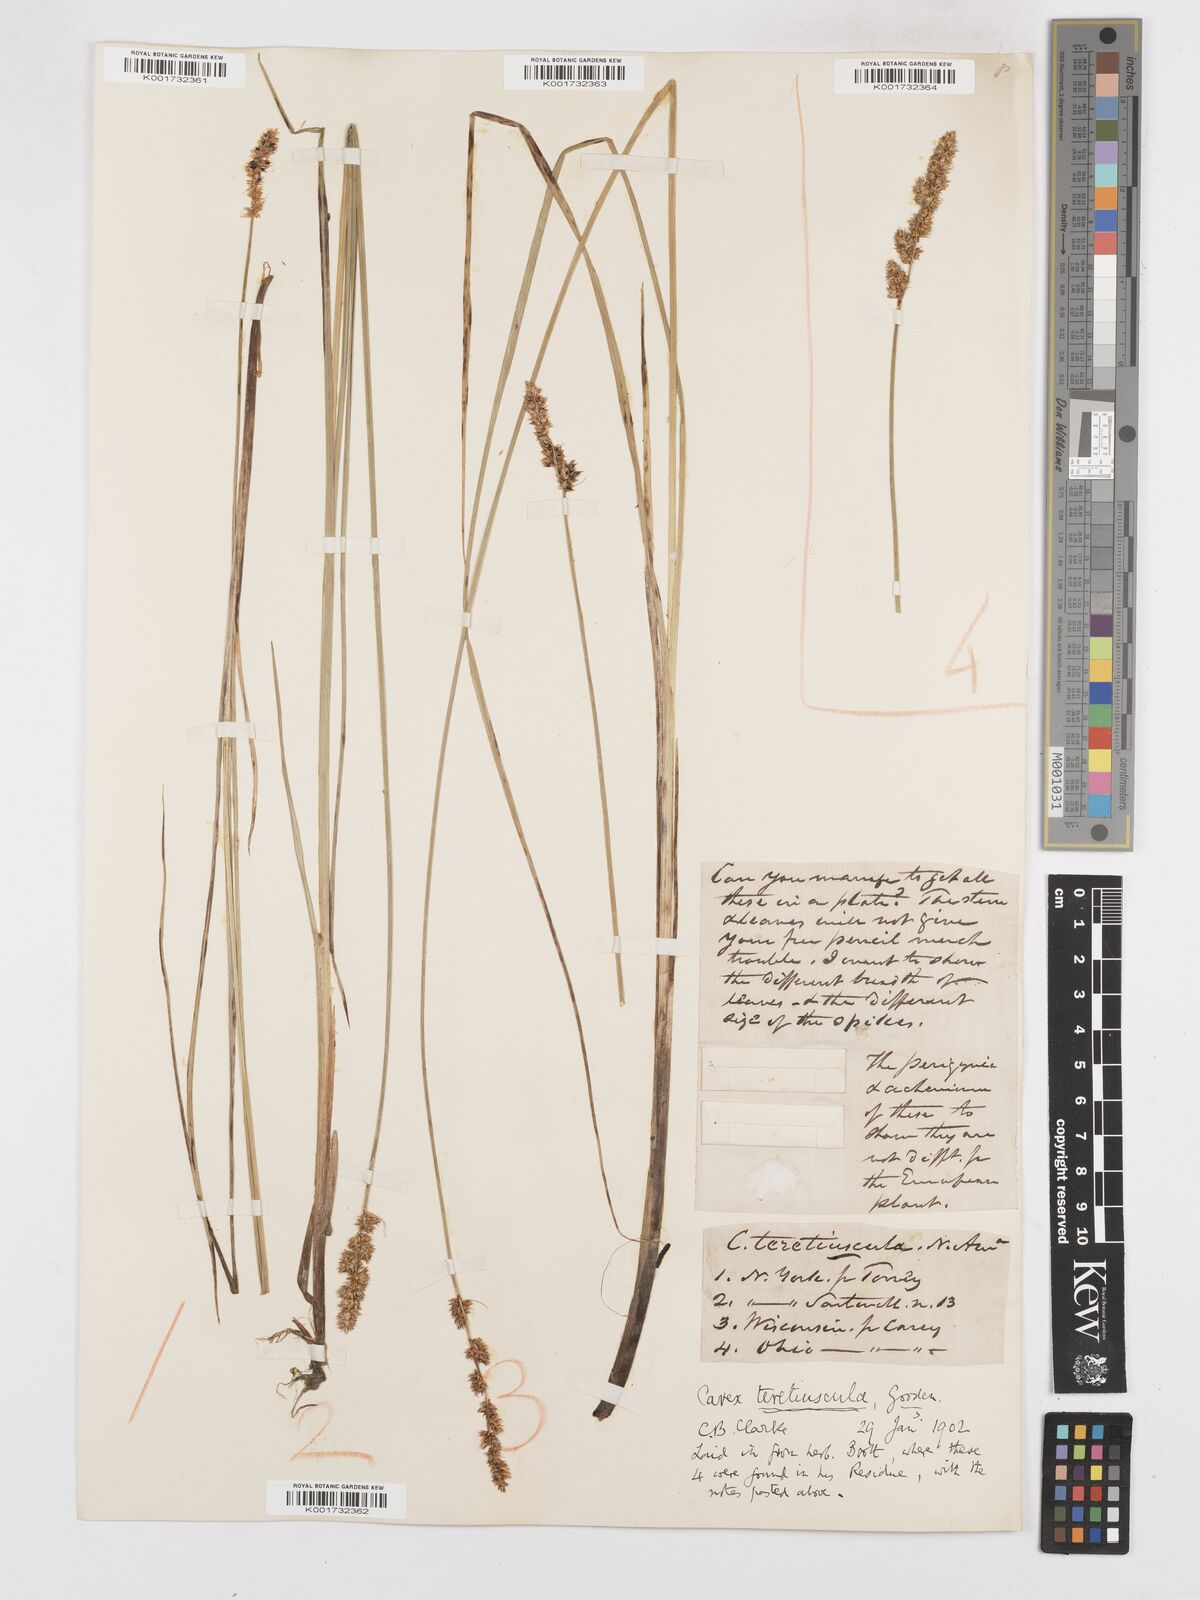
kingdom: Plantae
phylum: Tracheophyta
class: Liliopsida
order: Poales
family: Cyperaceae
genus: Carex
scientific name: Carex diandra
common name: Lesser tussock-sedge
